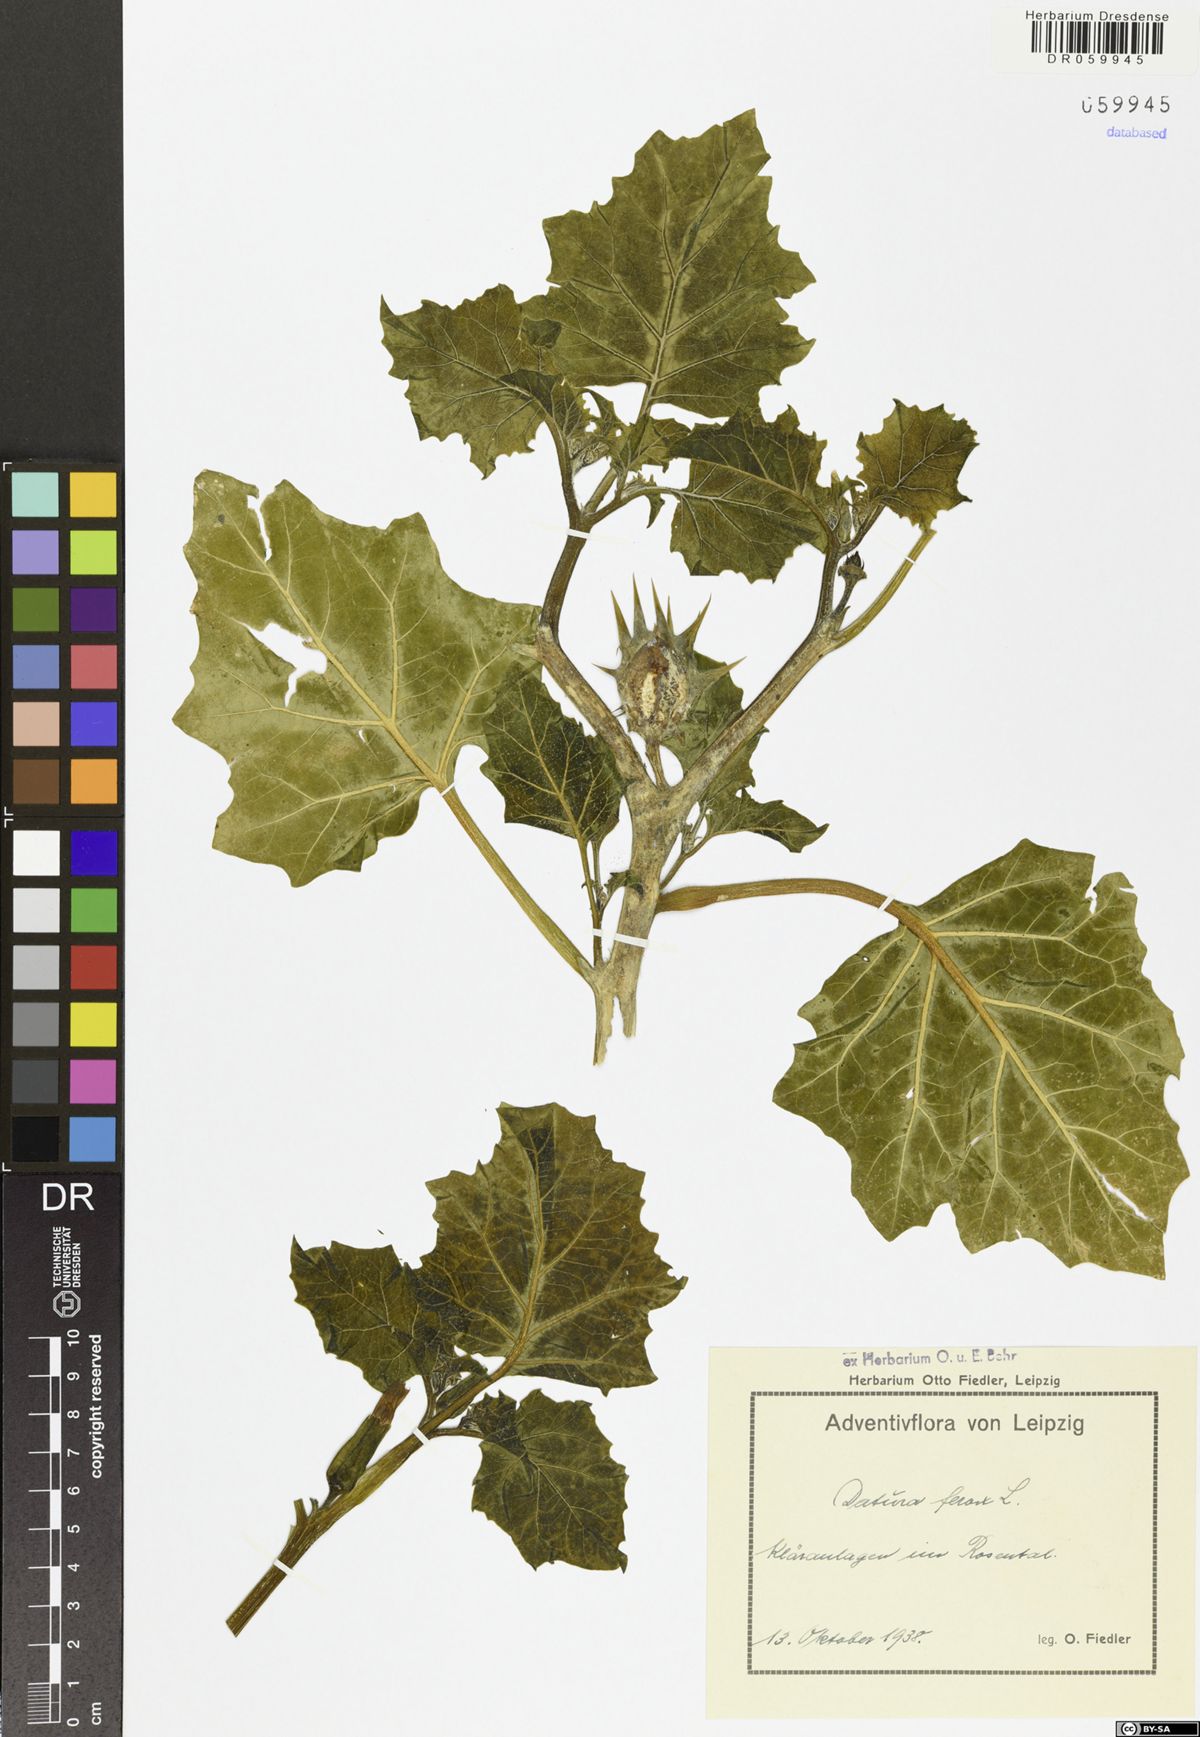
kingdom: Plantae
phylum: Tracheophyta
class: Magnoliopsida
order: Solanales
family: Solanaceae
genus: Datura
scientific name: Datura ferox
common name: Angel's-trumpets
